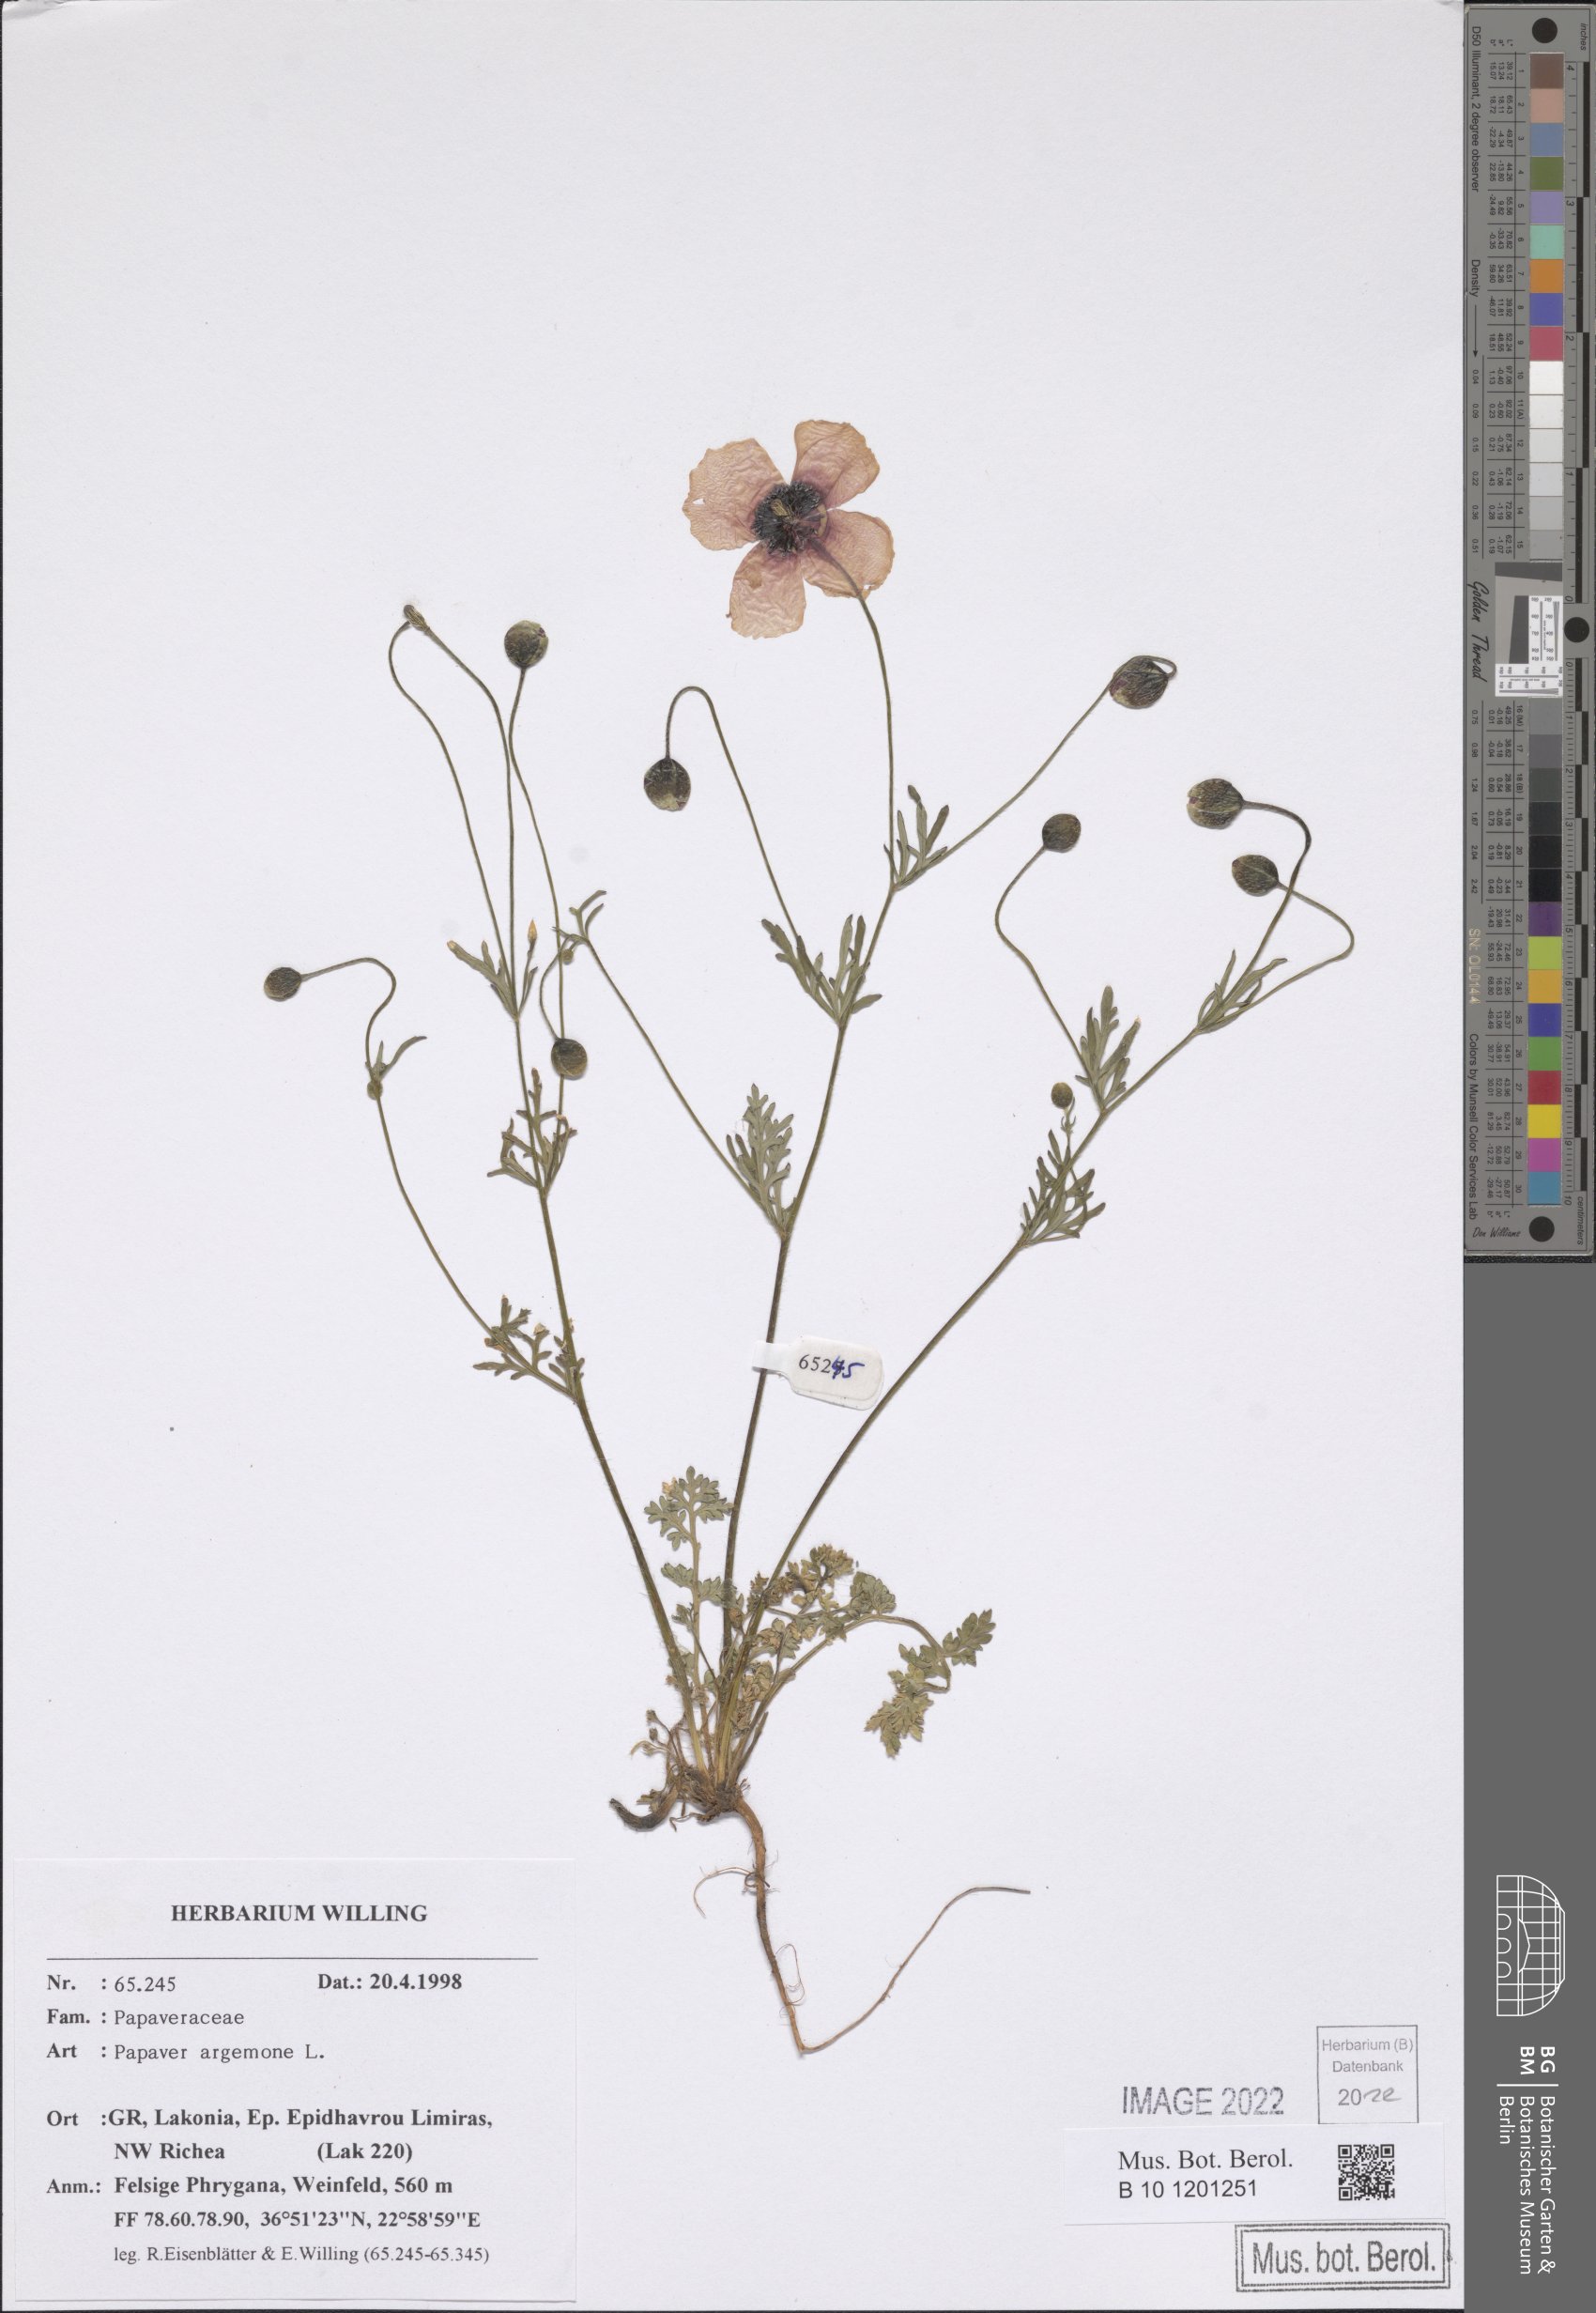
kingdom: Plantae
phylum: Tracheophyta
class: Magnoliopsida
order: Ranunculales
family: Papaveraceae
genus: Roemeria
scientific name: Roemeria argemone
